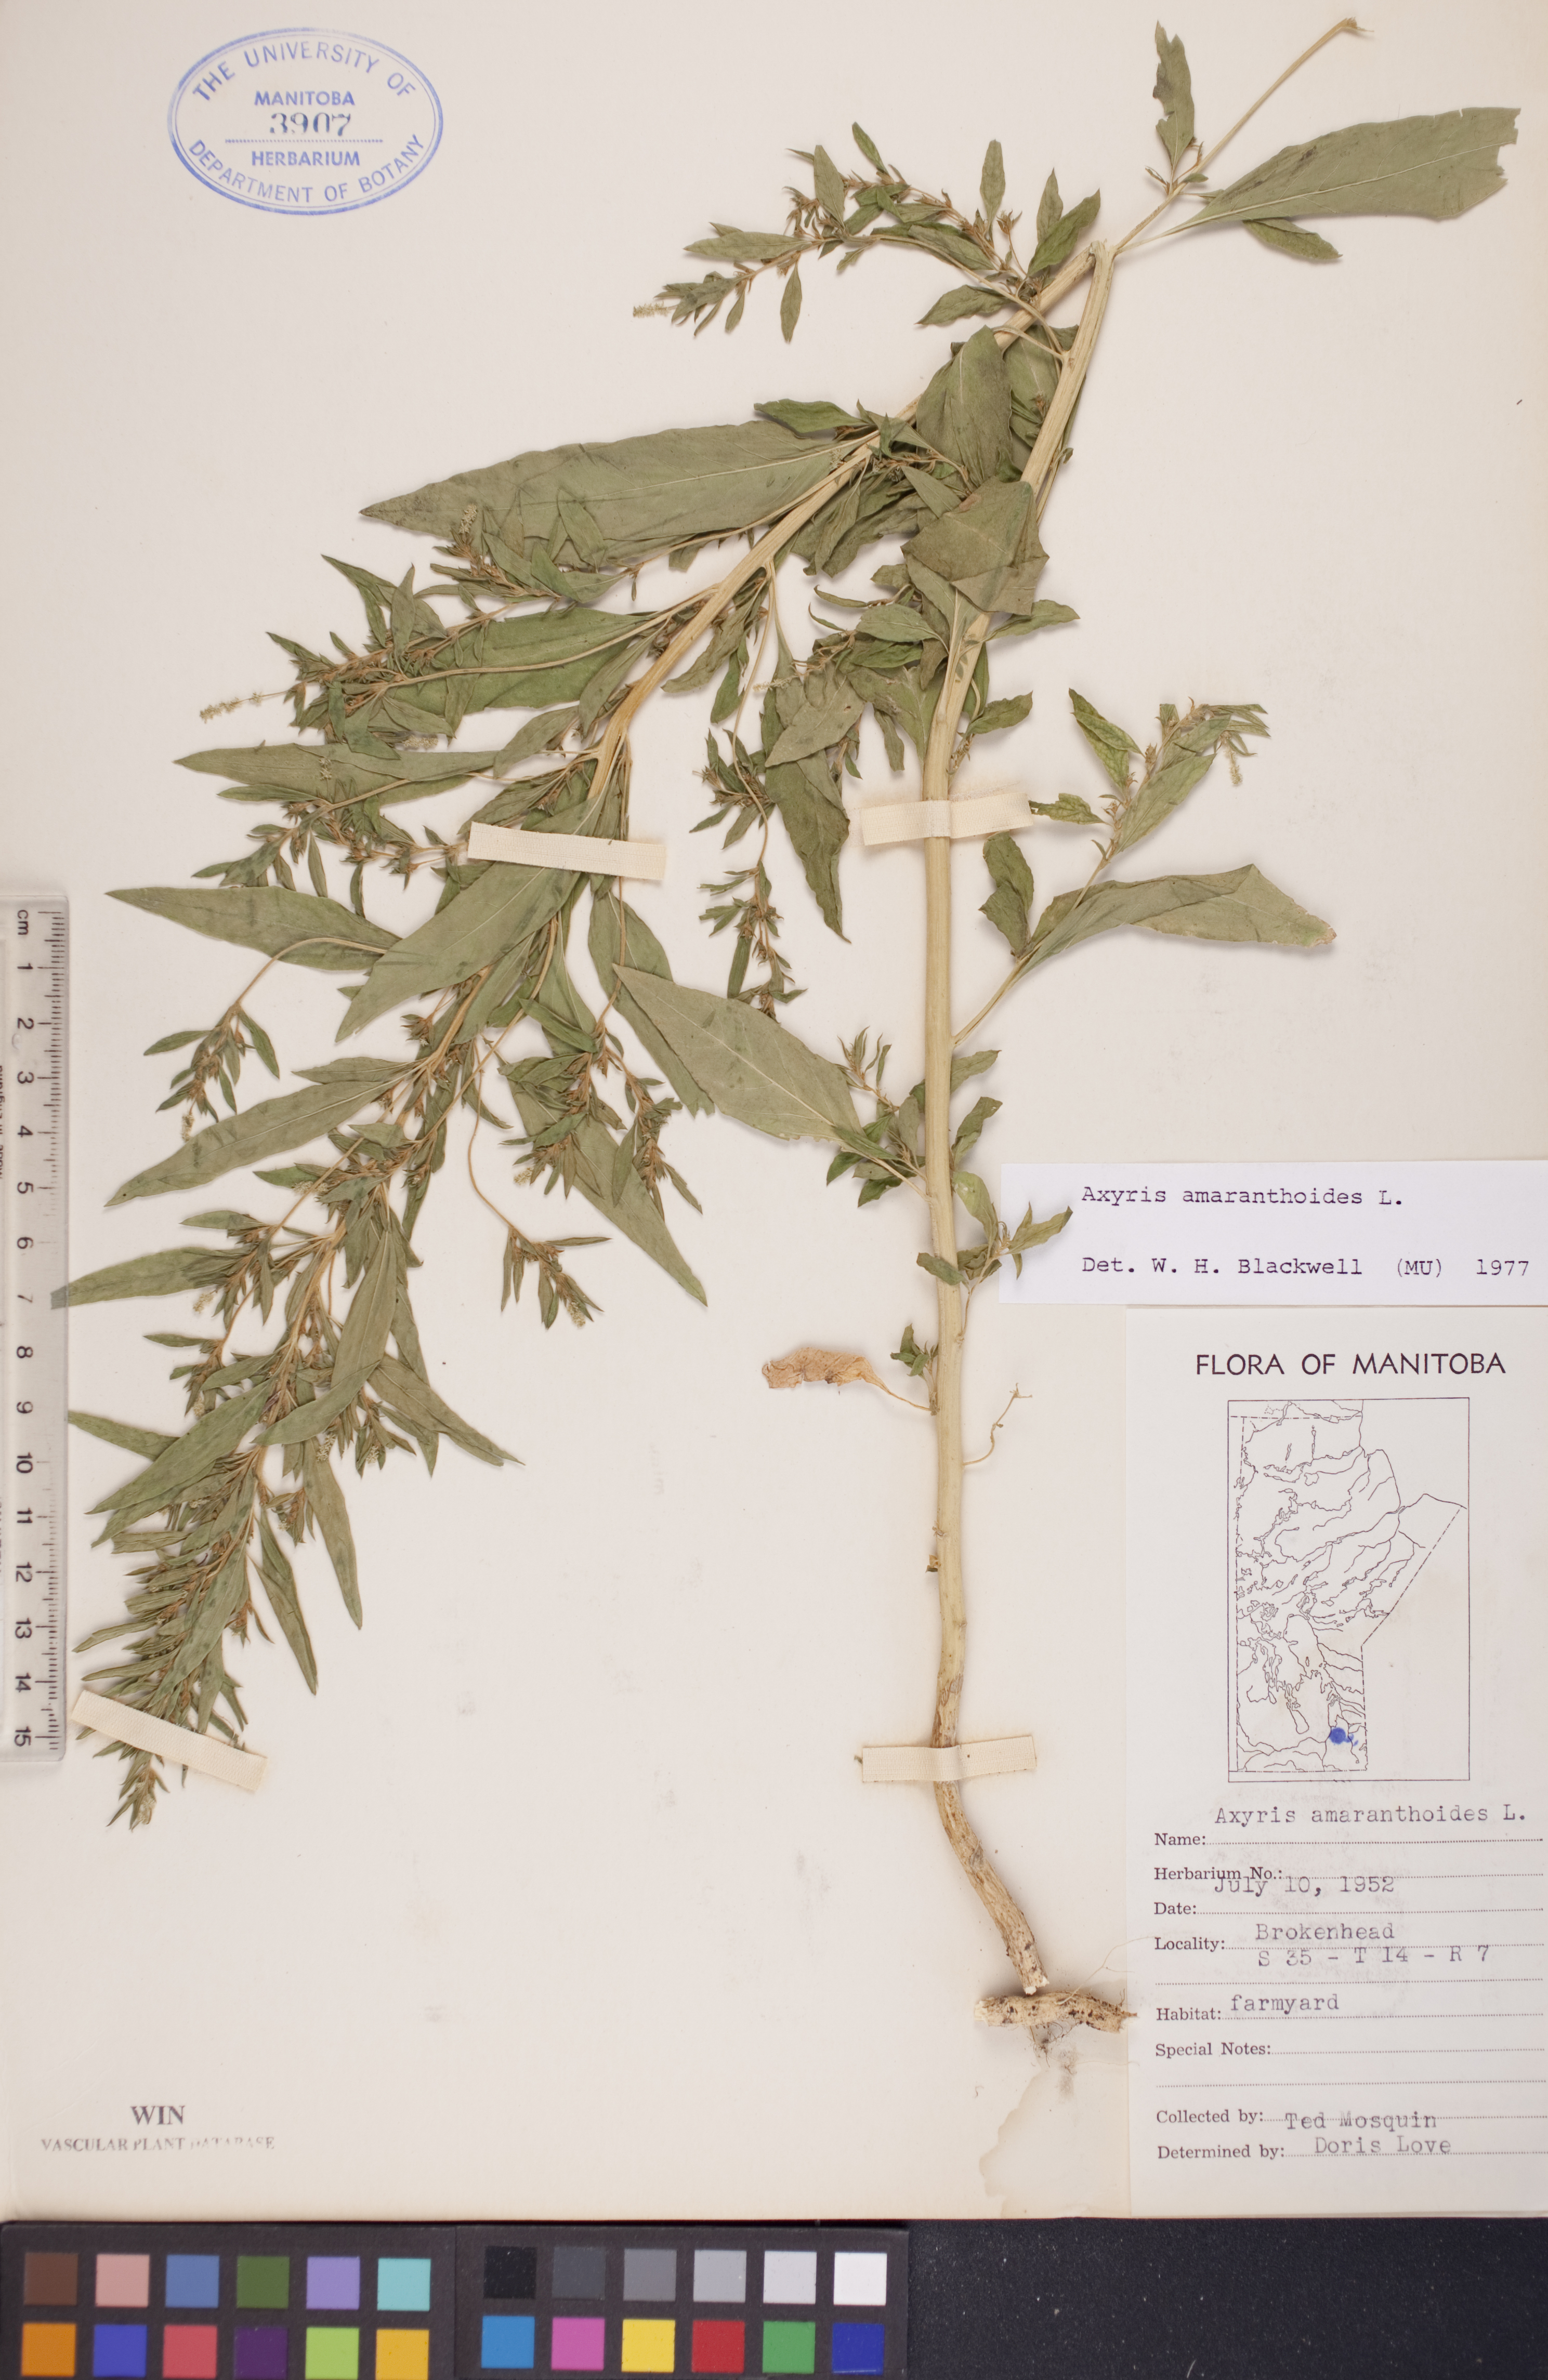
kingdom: Plantae
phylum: Tracheophyta
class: Magnoliopsida
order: Caryophyllales
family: Amaranthaceae
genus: Axyris
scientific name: Axyris amaranthoides
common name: Russian pigweed
